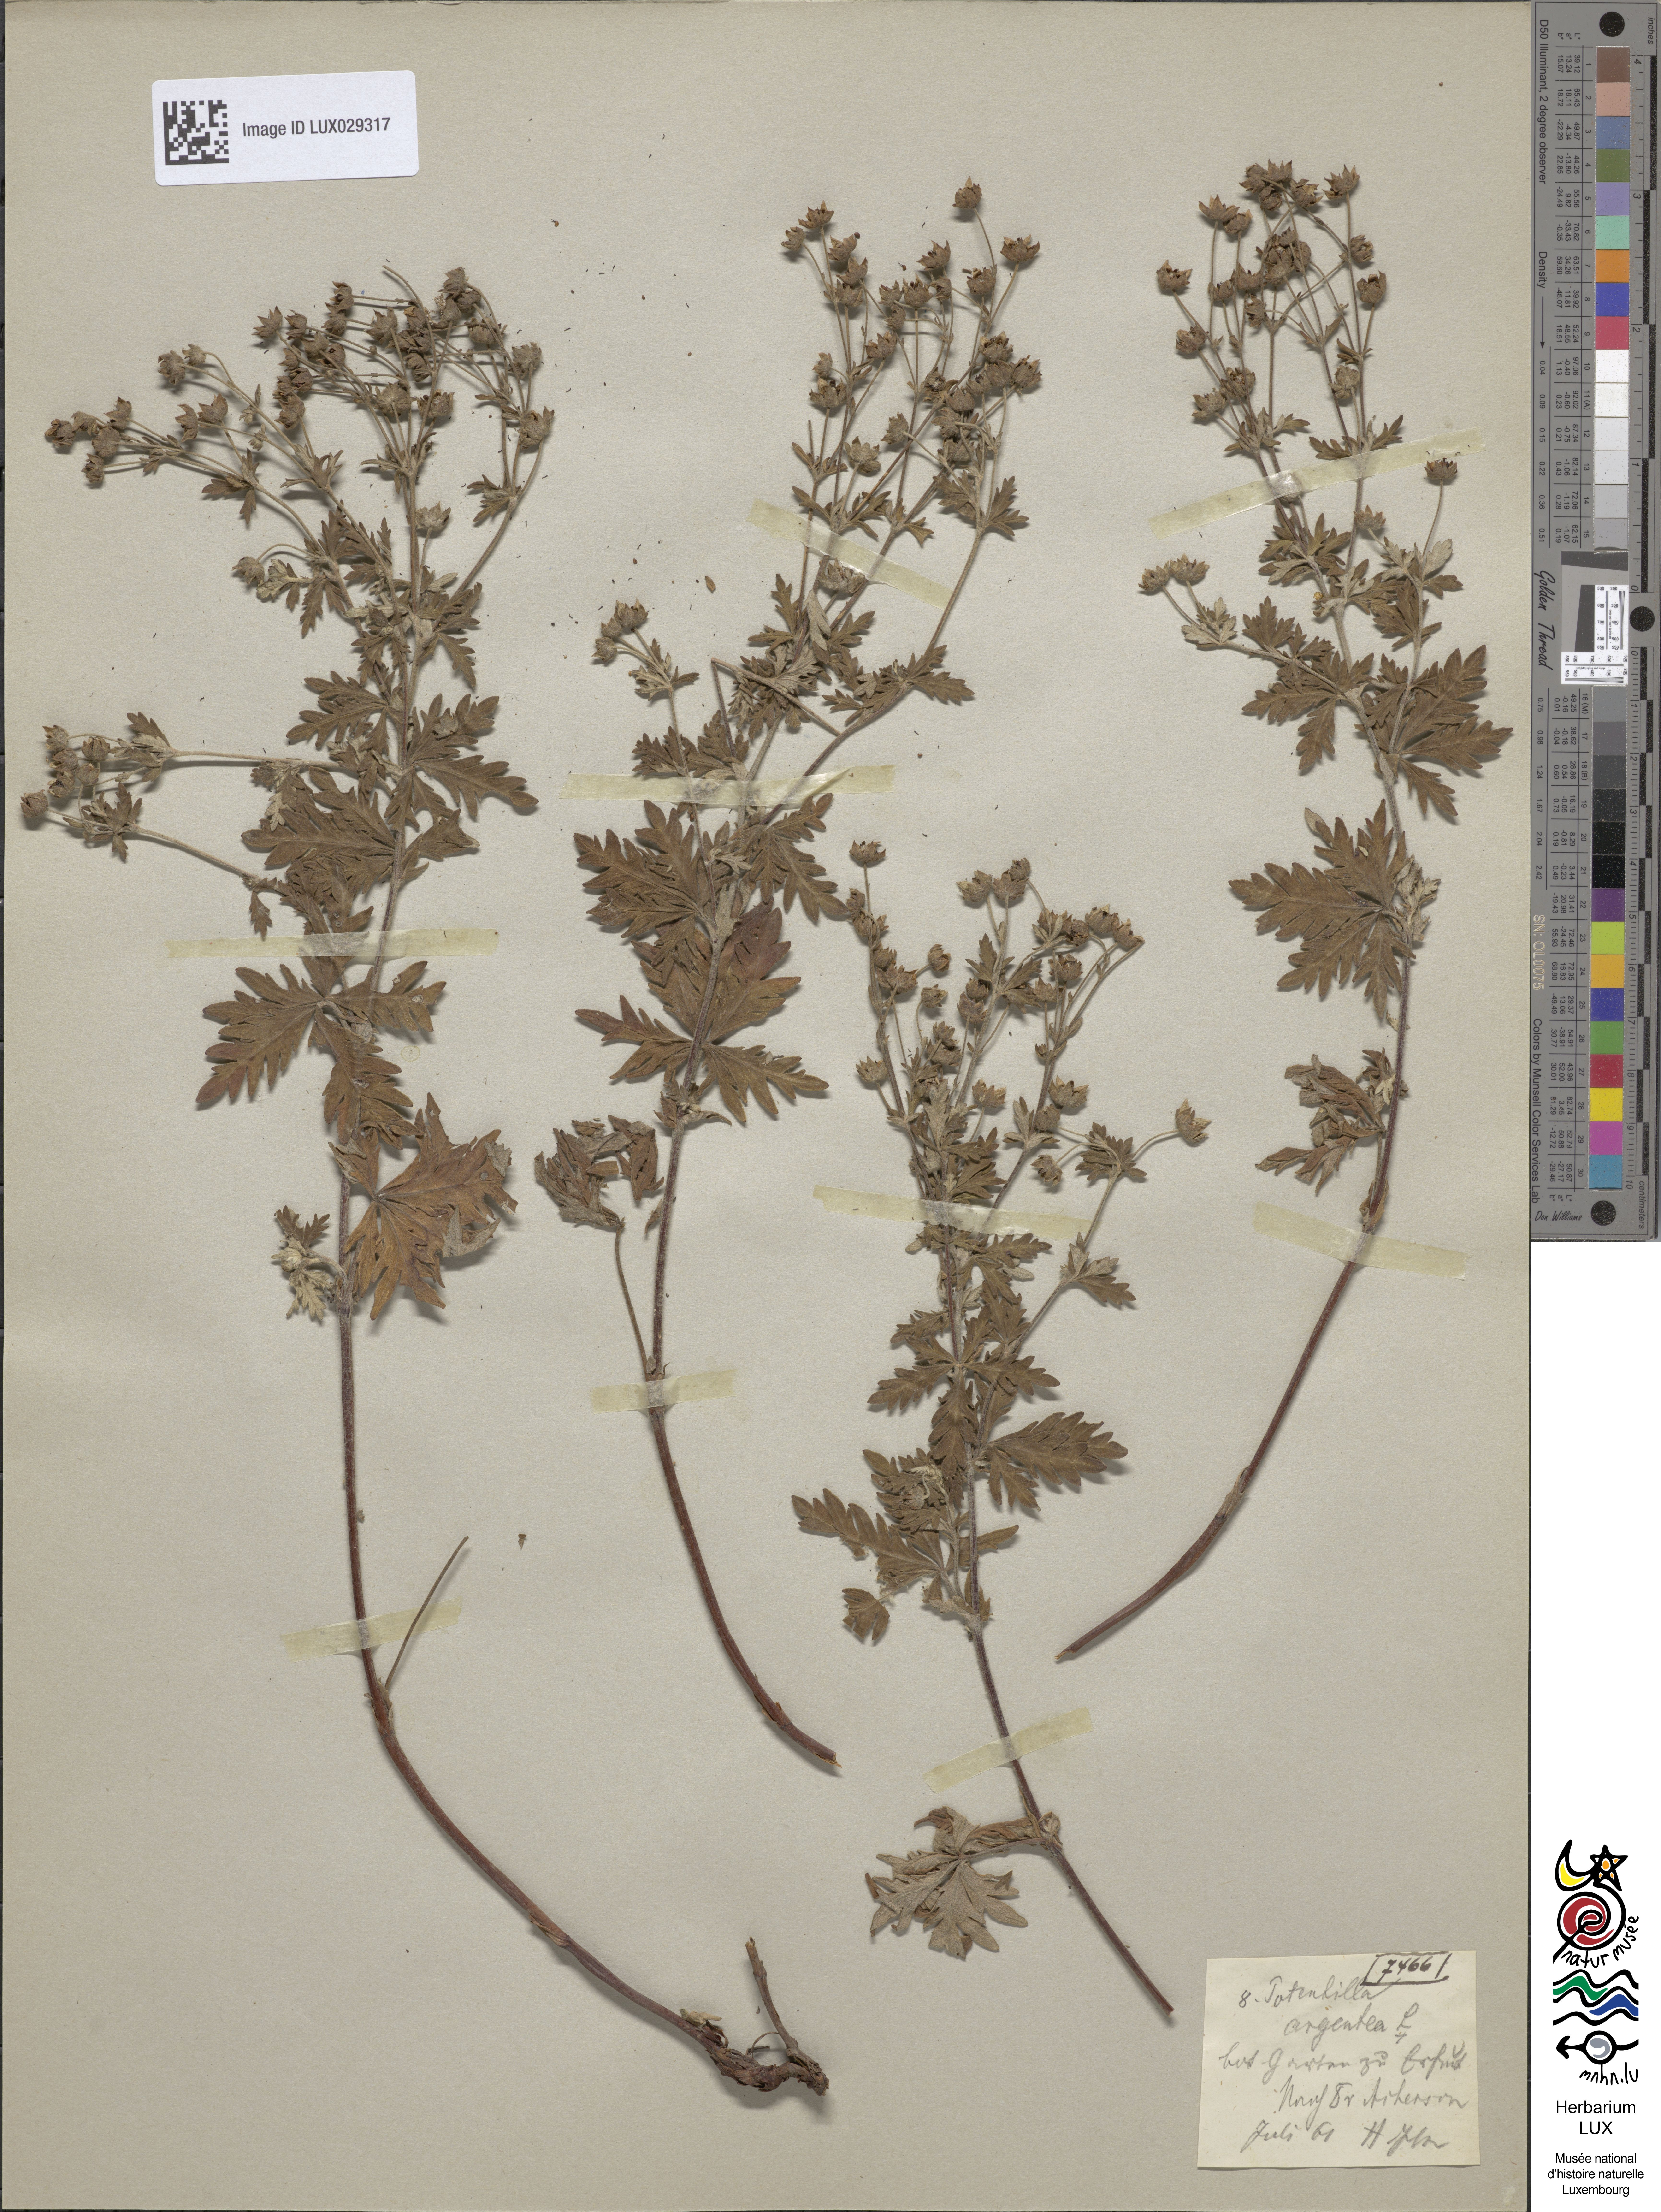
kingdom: Plantae
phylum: Tracheophyta
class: Magnoliopsida
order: Rosales
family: Rosaceae
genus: Potentilla
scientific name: Potentilla argentea
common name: Hoary cinquefoil
